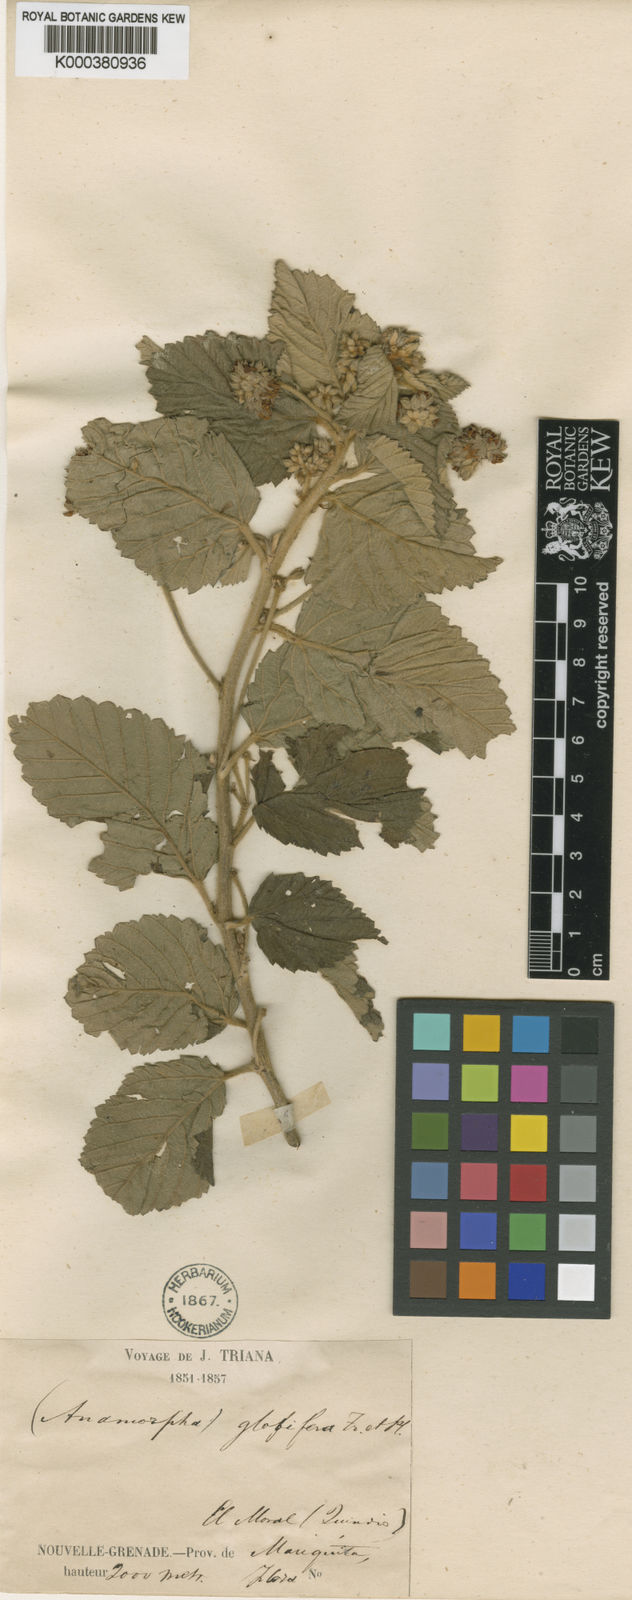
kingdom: Plantae
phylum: Tracheophyta
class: Magnoliopsida
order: Malvales
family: Malvaceae
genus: Melochia
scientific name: Melochia mollis
